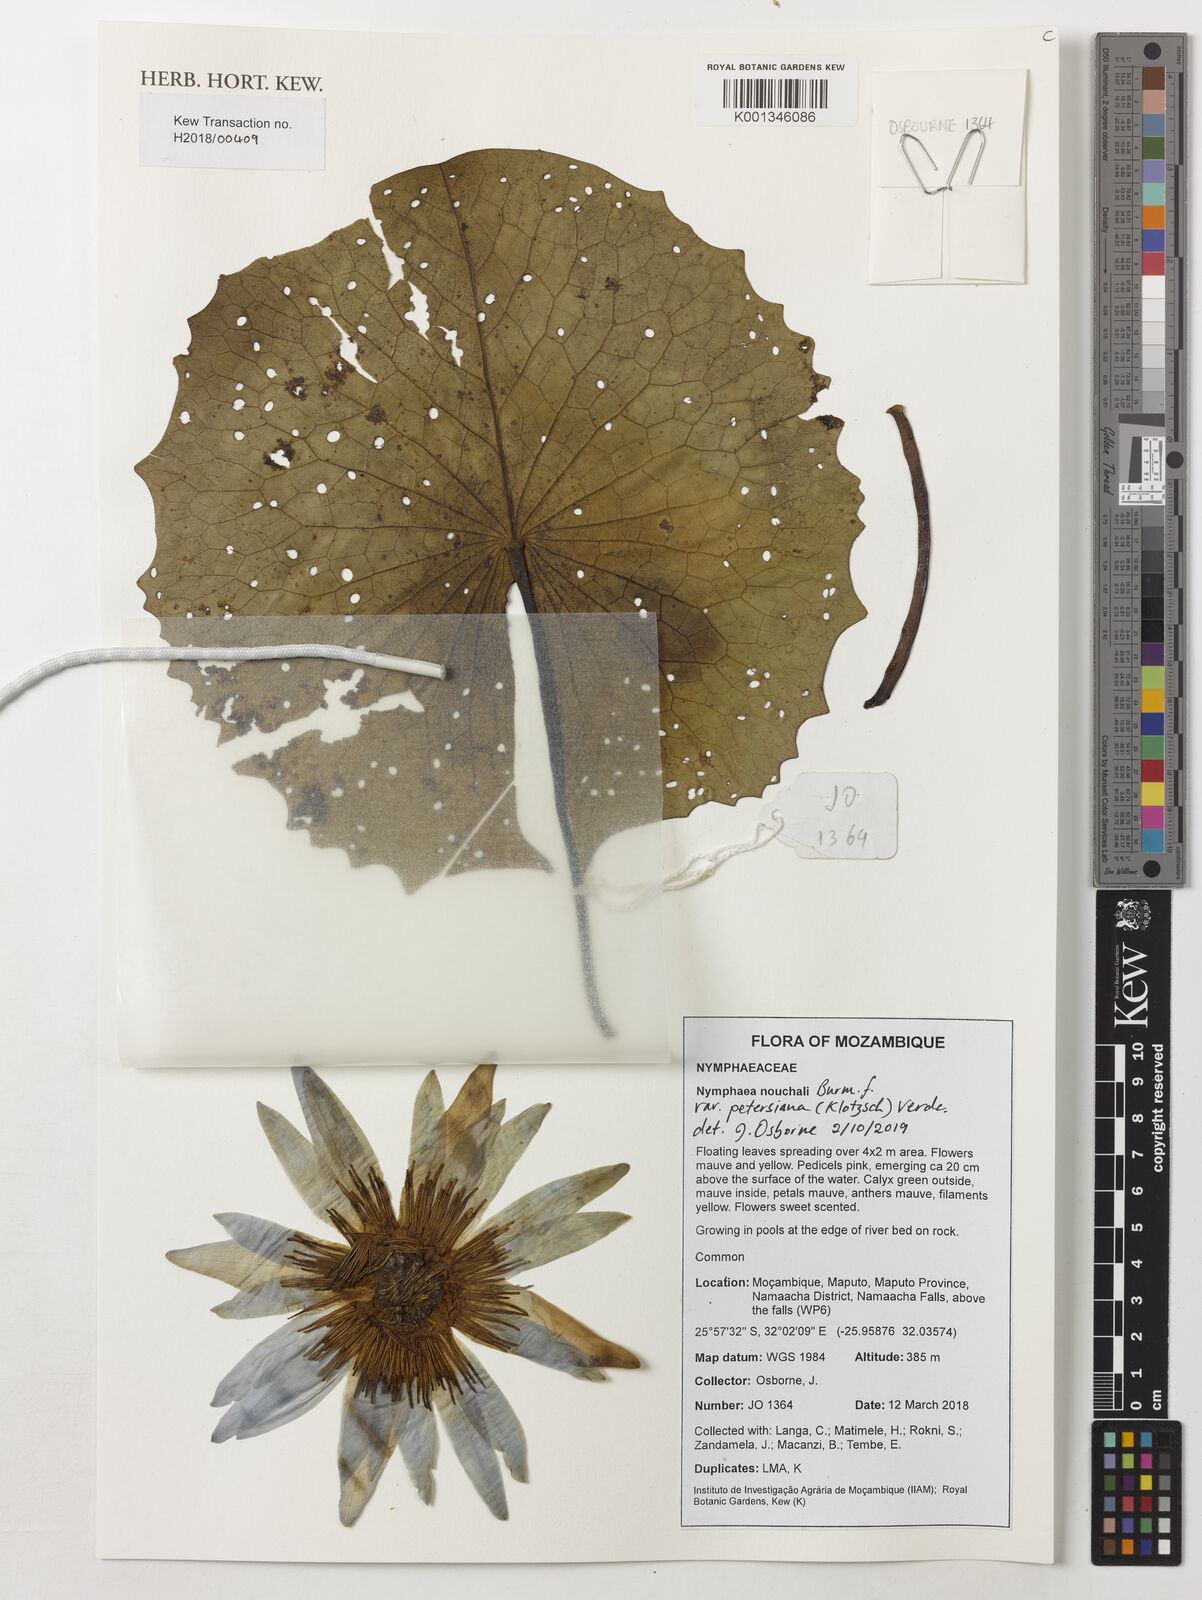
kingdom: Plantae
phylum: Tracheophyta
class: Magnoliopsida
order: Nymphaeales
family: Nymphaeaceae
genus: Nymphaea
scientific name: Nymphaea nouchali
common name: Blue lotus
